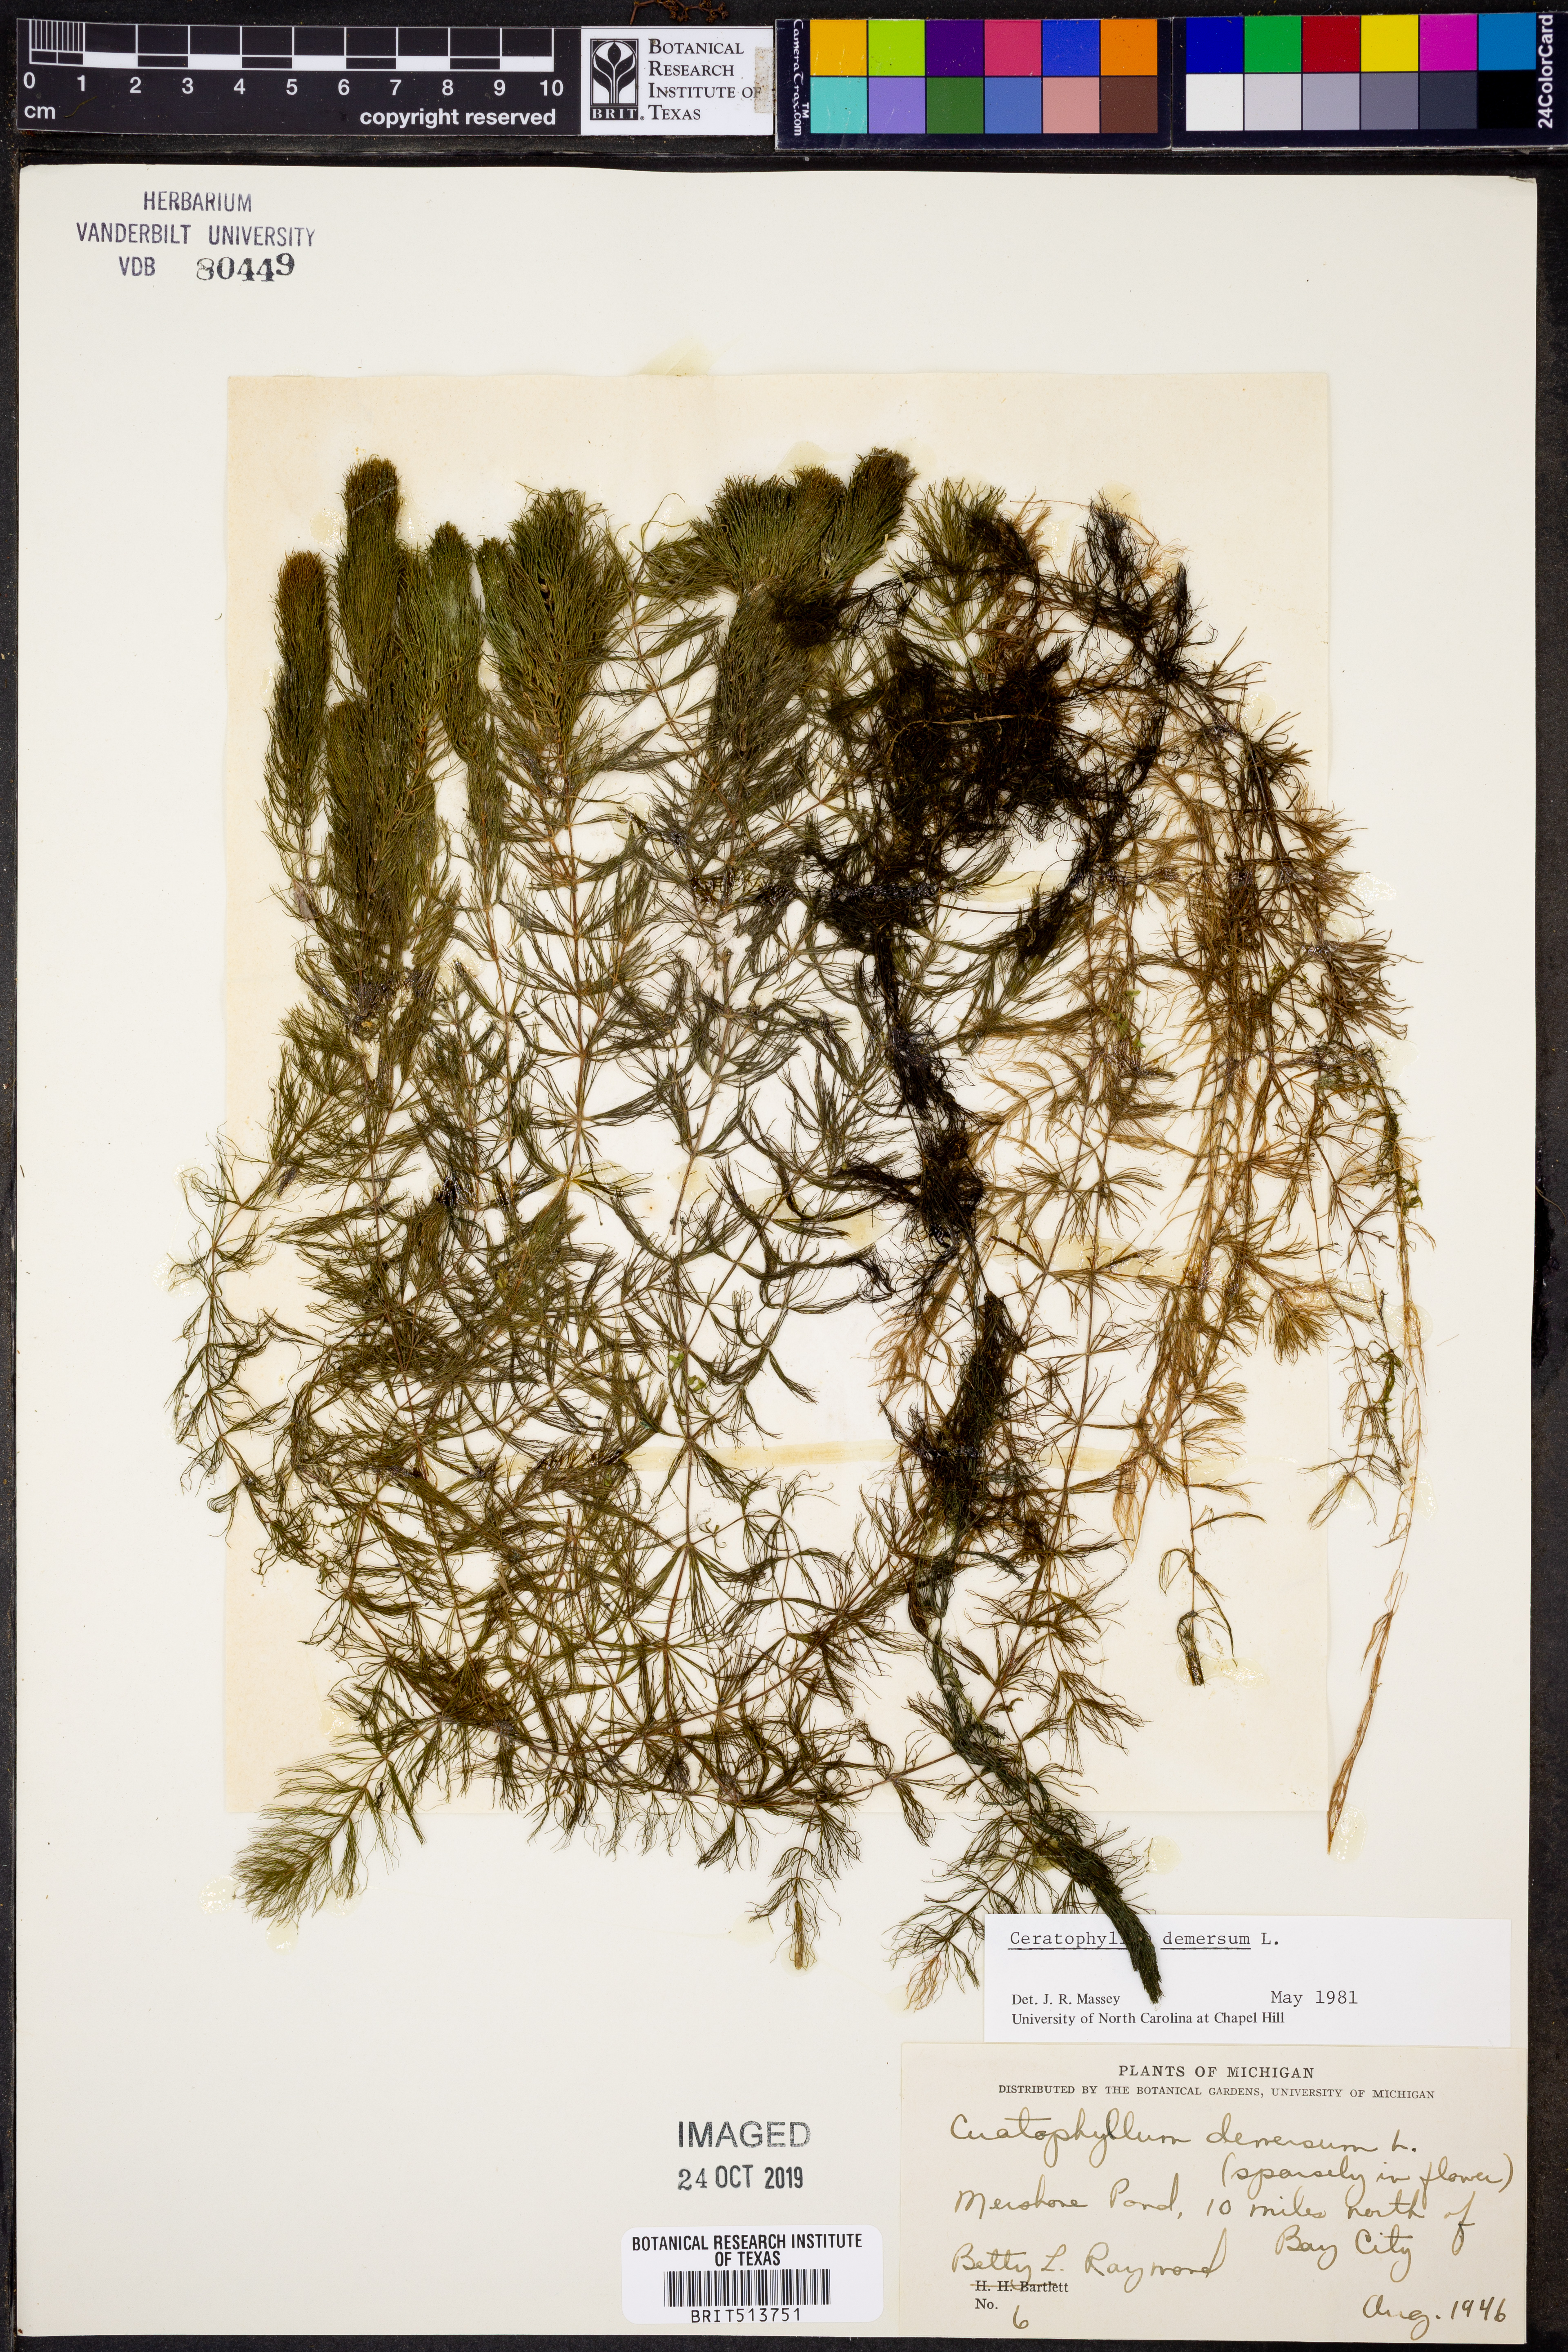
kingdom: Plantae
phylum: Tracheophyta
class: Magnoliopsida
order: Ceratophyllales
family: Ceratophyllaceae
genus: Ceratophyllum
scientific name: Ceratophyllum demersum
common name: Rigid hornwort
